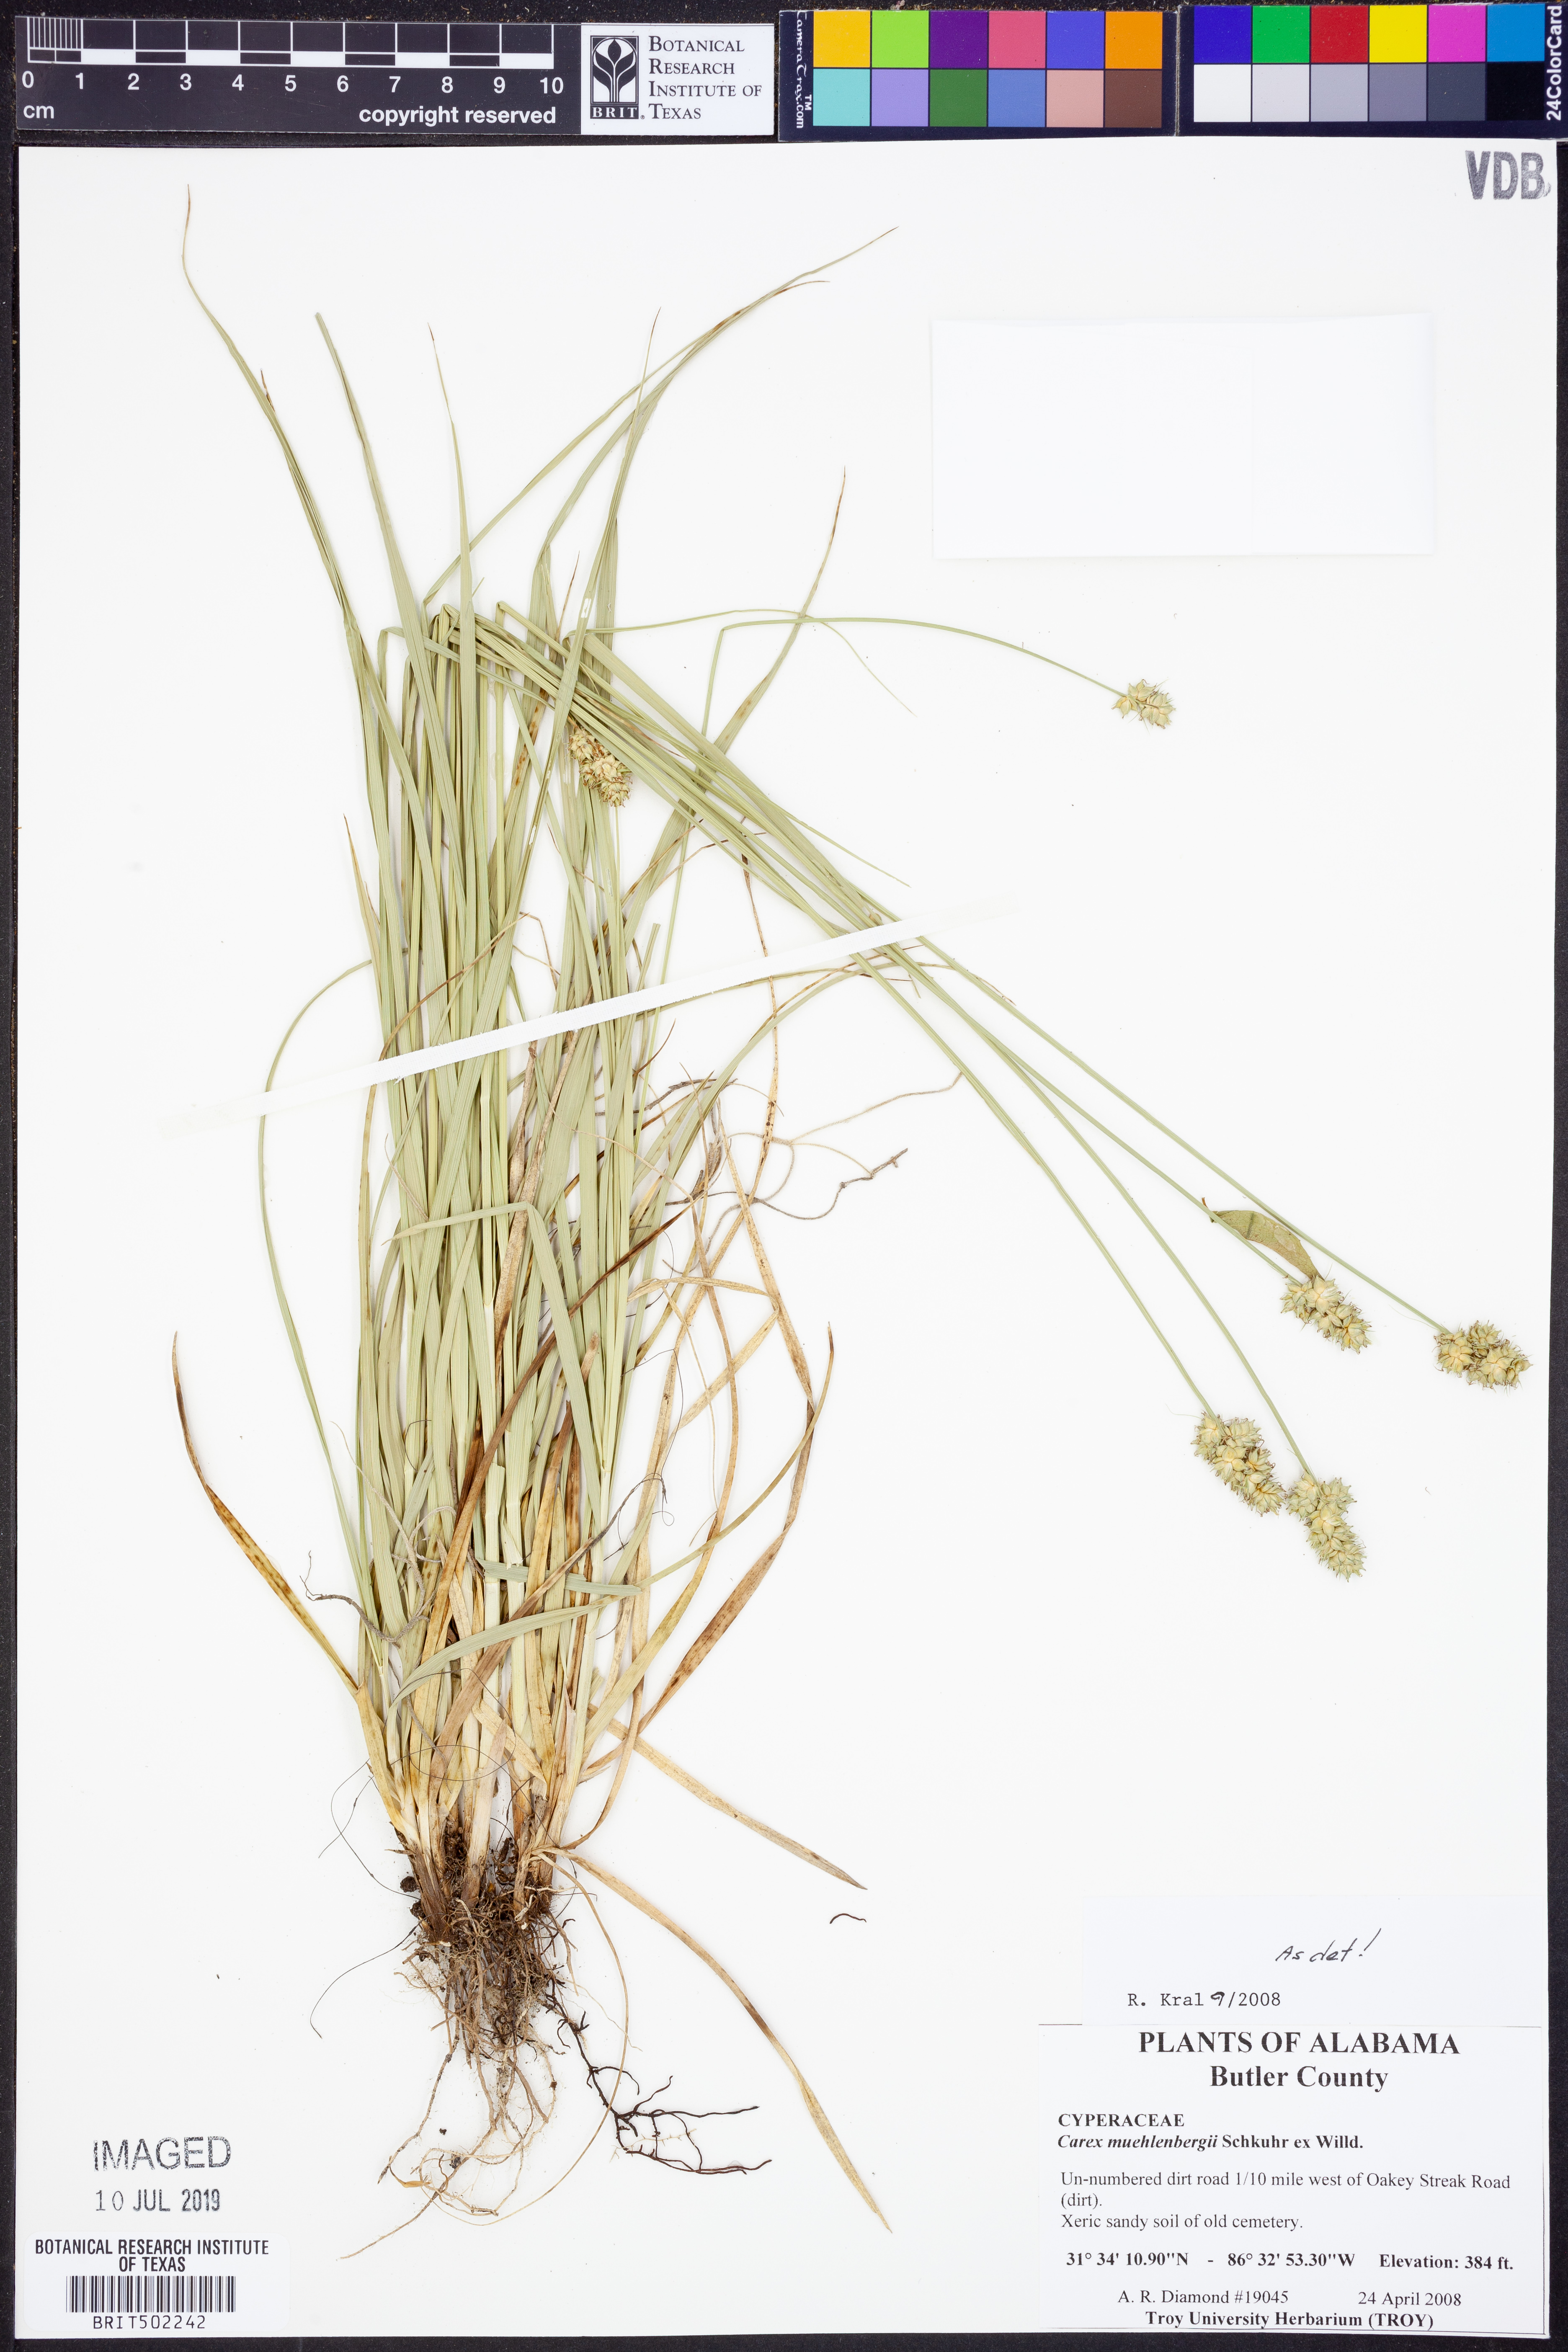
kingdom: Plantae
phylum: Tracheophyta
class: Liliopsida
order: Poales
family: Cyperaceae
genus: Carex
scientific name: Carex vulpinoidea
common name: American fox-sedge
